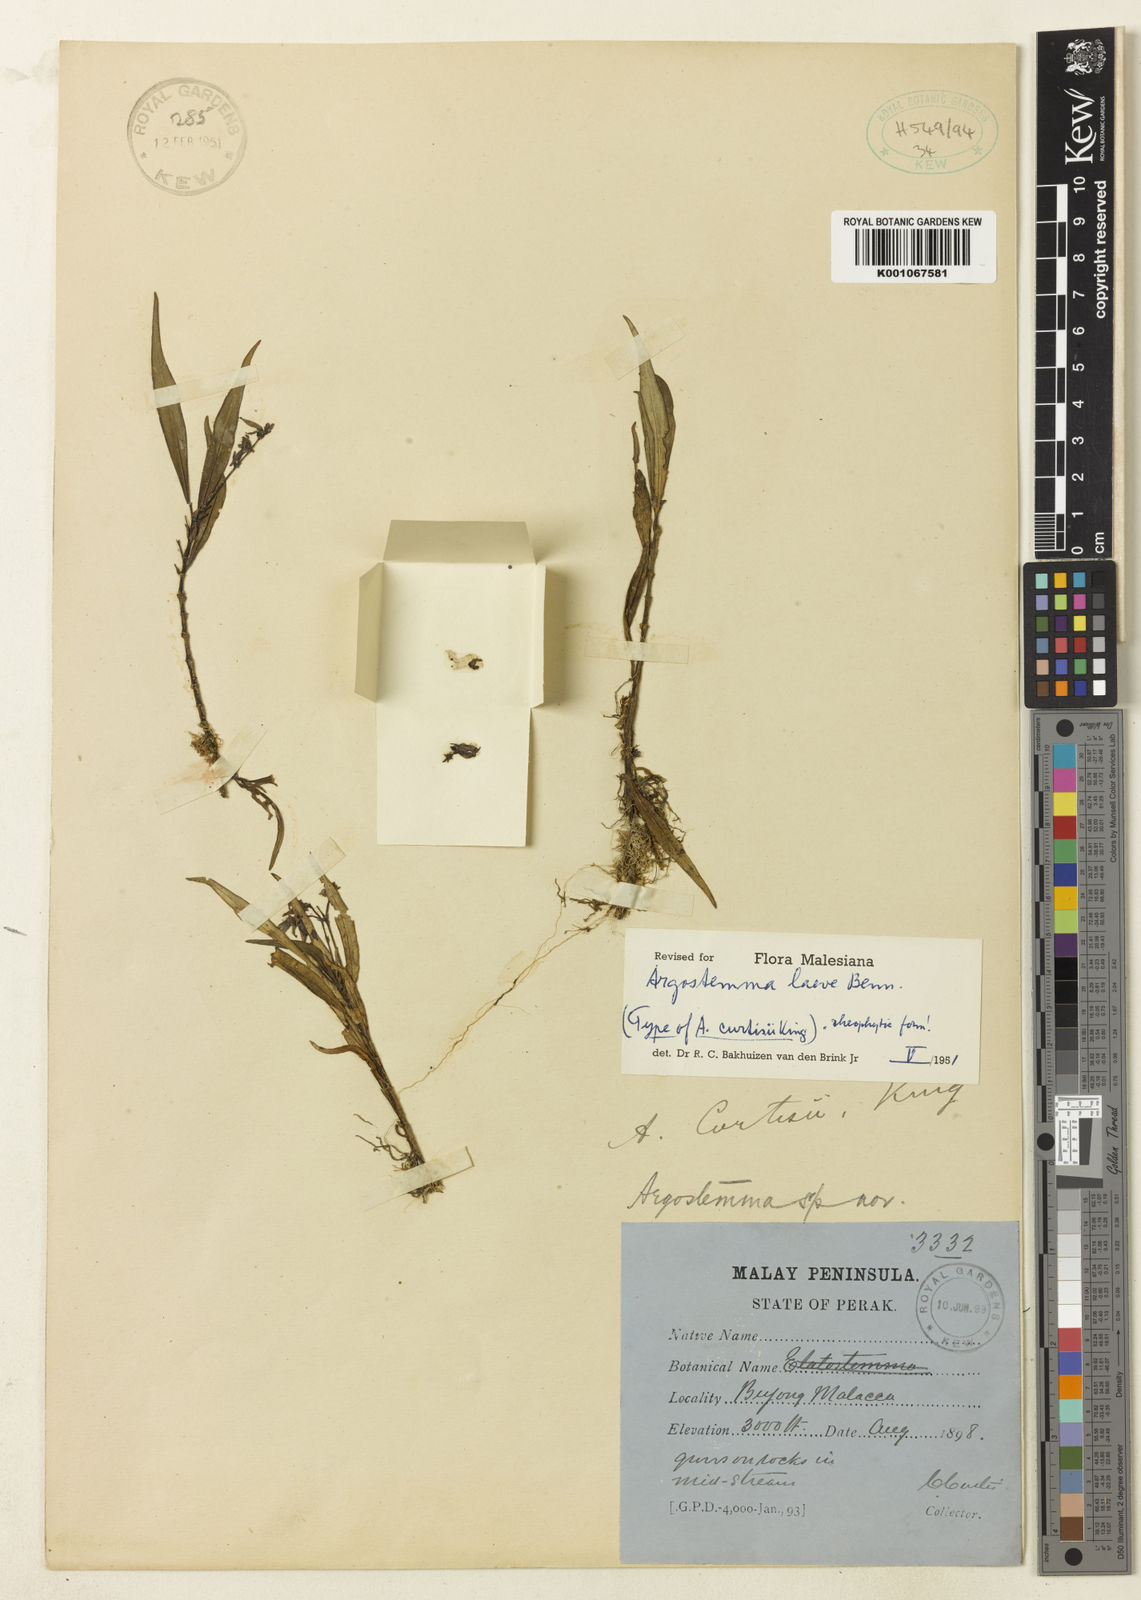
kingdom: Plantae
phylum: Tracheophyta
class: Magnoliopsida
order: Gentianales
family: Rubiaceae
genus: Argostemma
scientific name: Argostemma laeve
